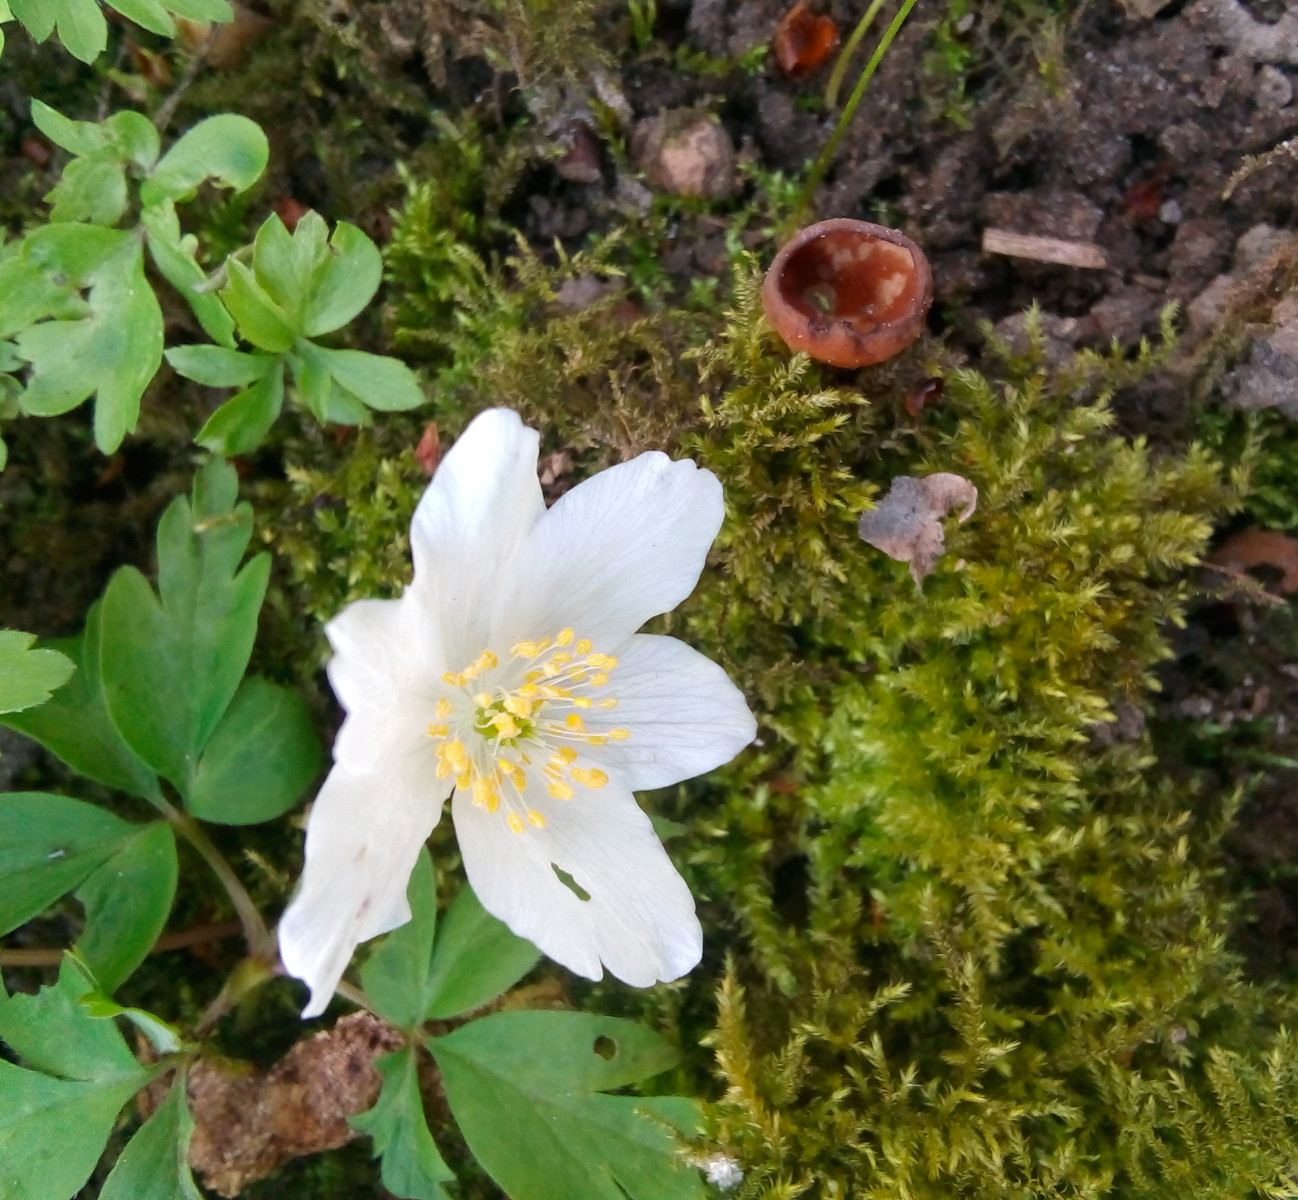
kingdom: Fungi
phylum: Ascomycota
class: Leotiomycetes
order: Helotiales
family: Sclerotiniaceae
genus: Dumontinia
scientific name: Dumontinia tuberosa
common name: anemone-knoldskive
